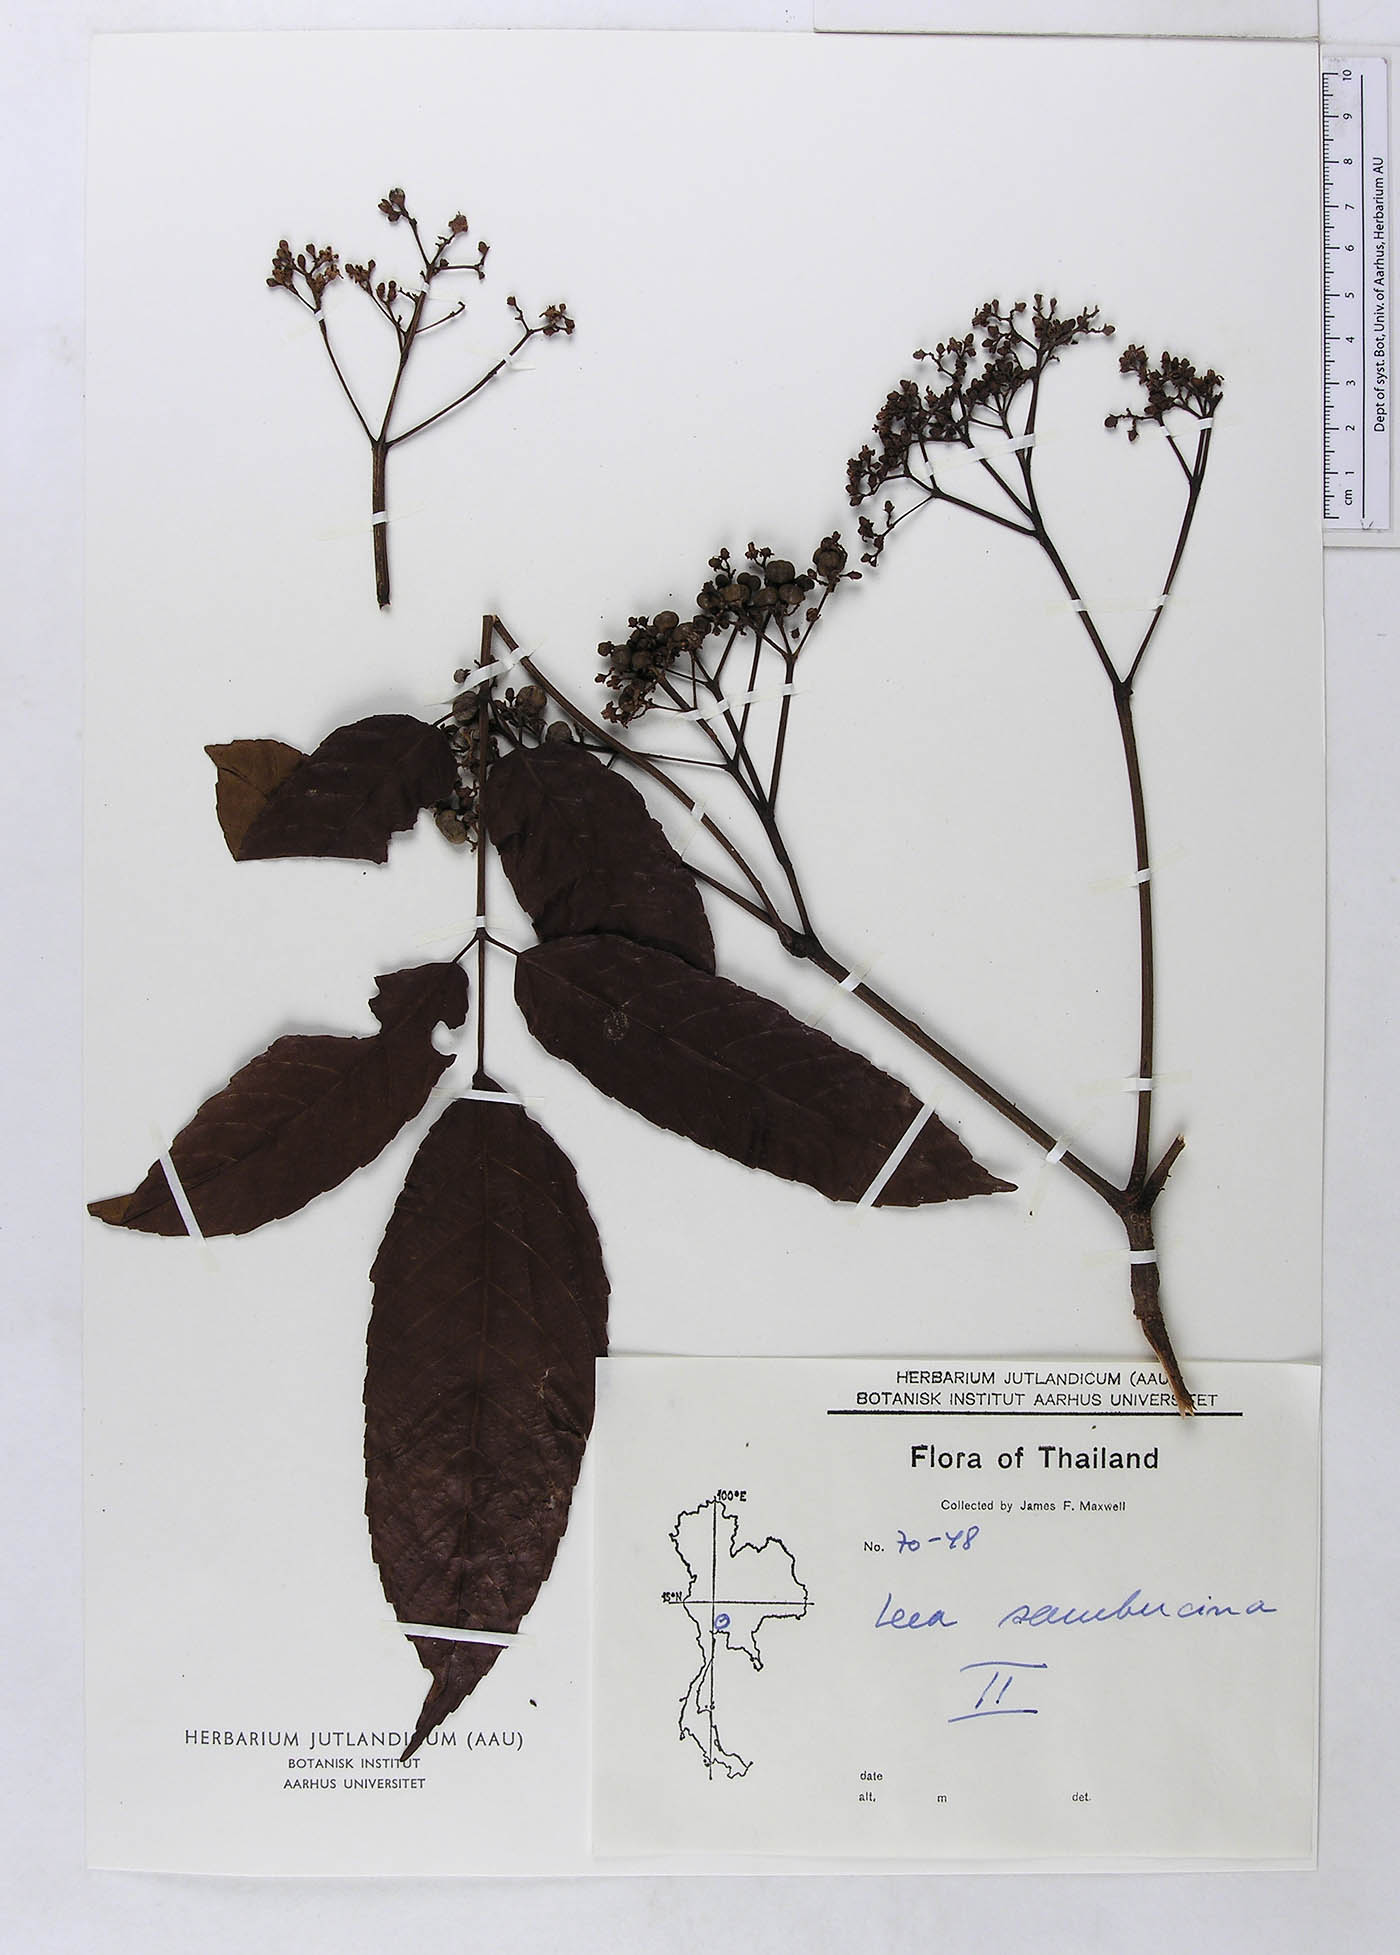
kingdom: Plantae
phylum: Tracheophyta
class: Magnoliopsida
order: Vitales
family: Vitaceae
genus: Leea
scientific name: Leea guineensis
